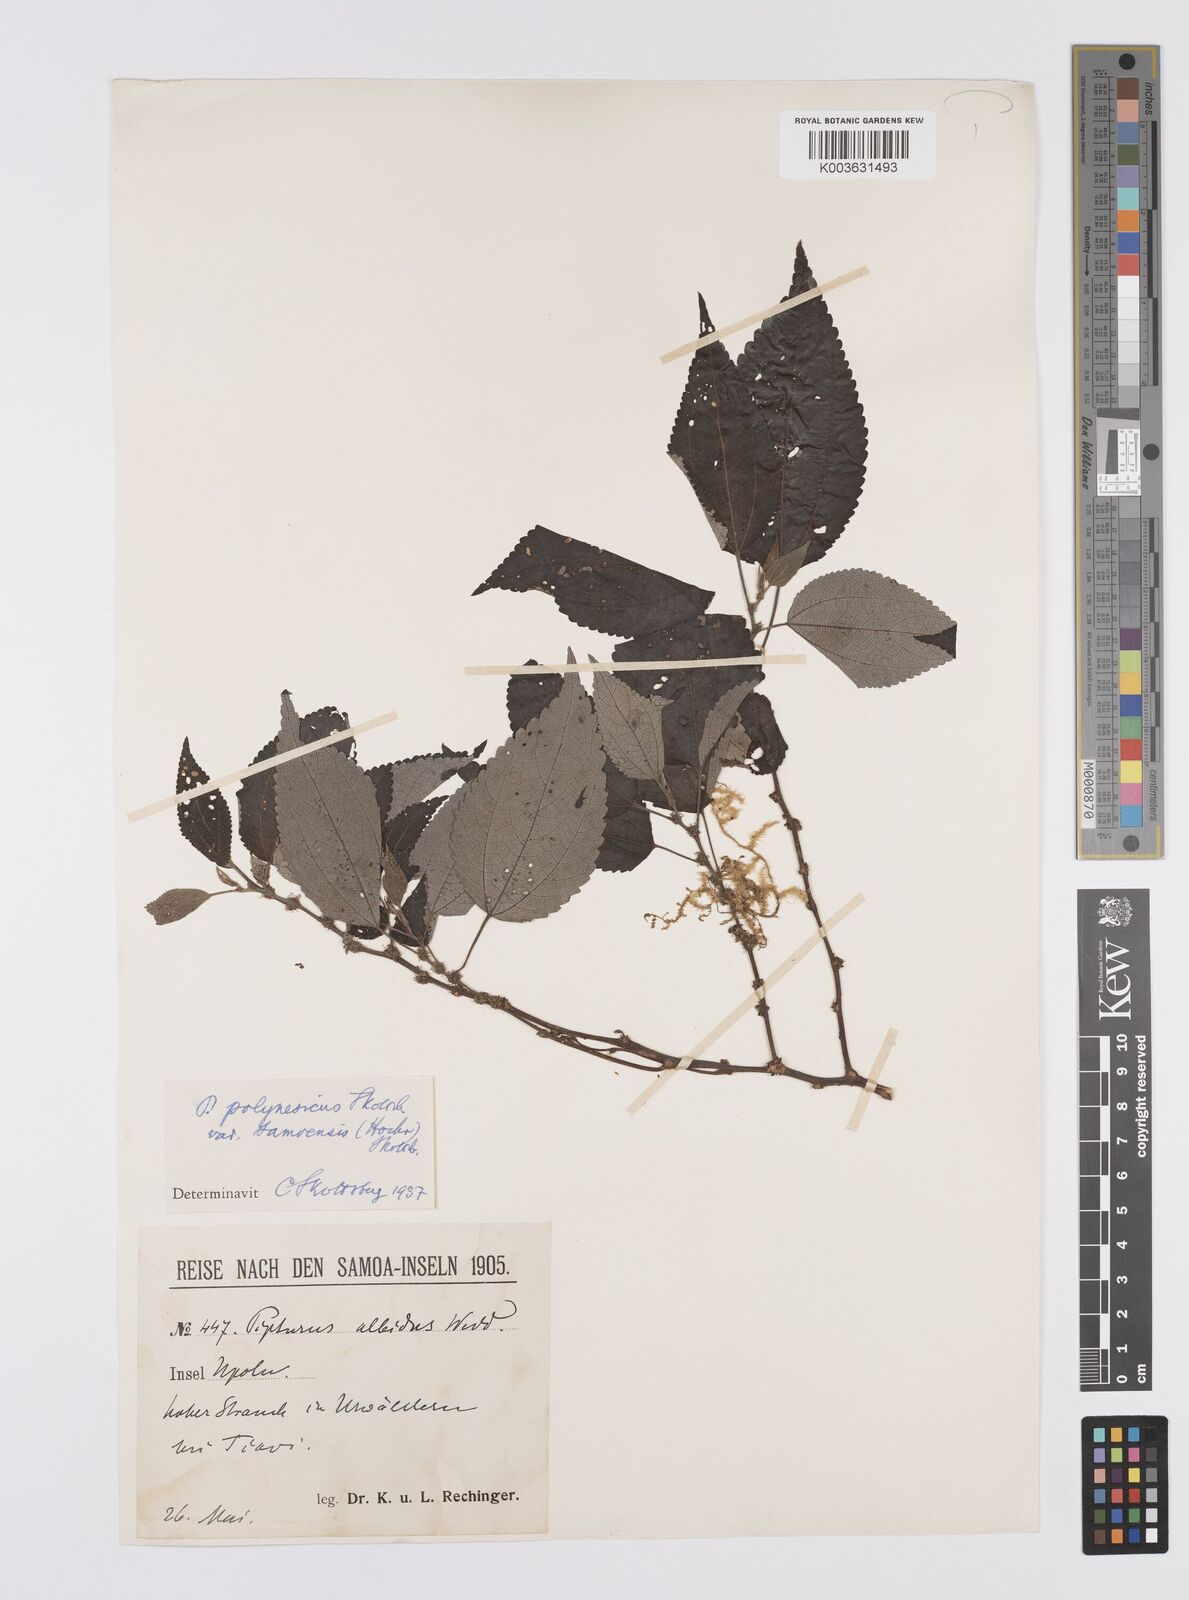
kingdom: Plantae
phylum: Tracheophyta
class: Magnoliopsida
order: Rosales
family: Urticaceae
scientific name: Urticaceae
